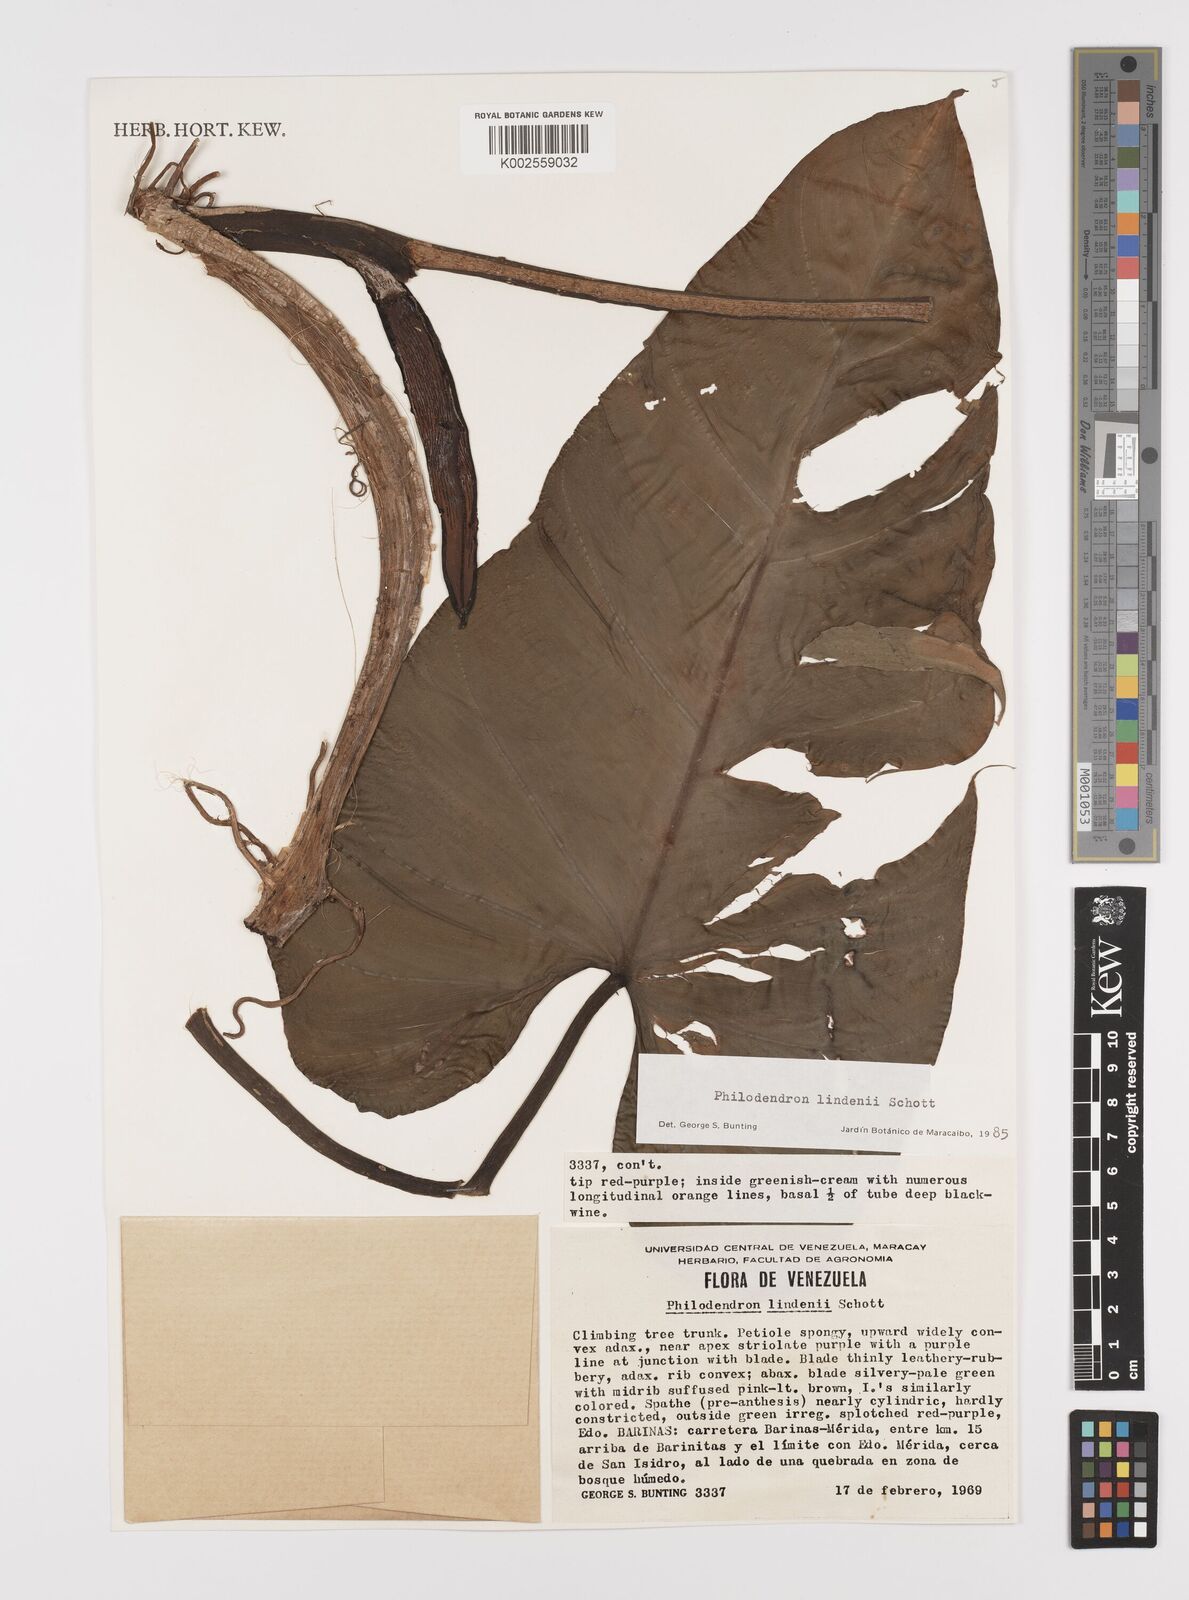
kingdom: Plantae
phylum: Tracheophyta
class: Liliopsida
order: Alismatales
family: Araceae
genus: Philodendron
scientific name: Philodendron lindenii
